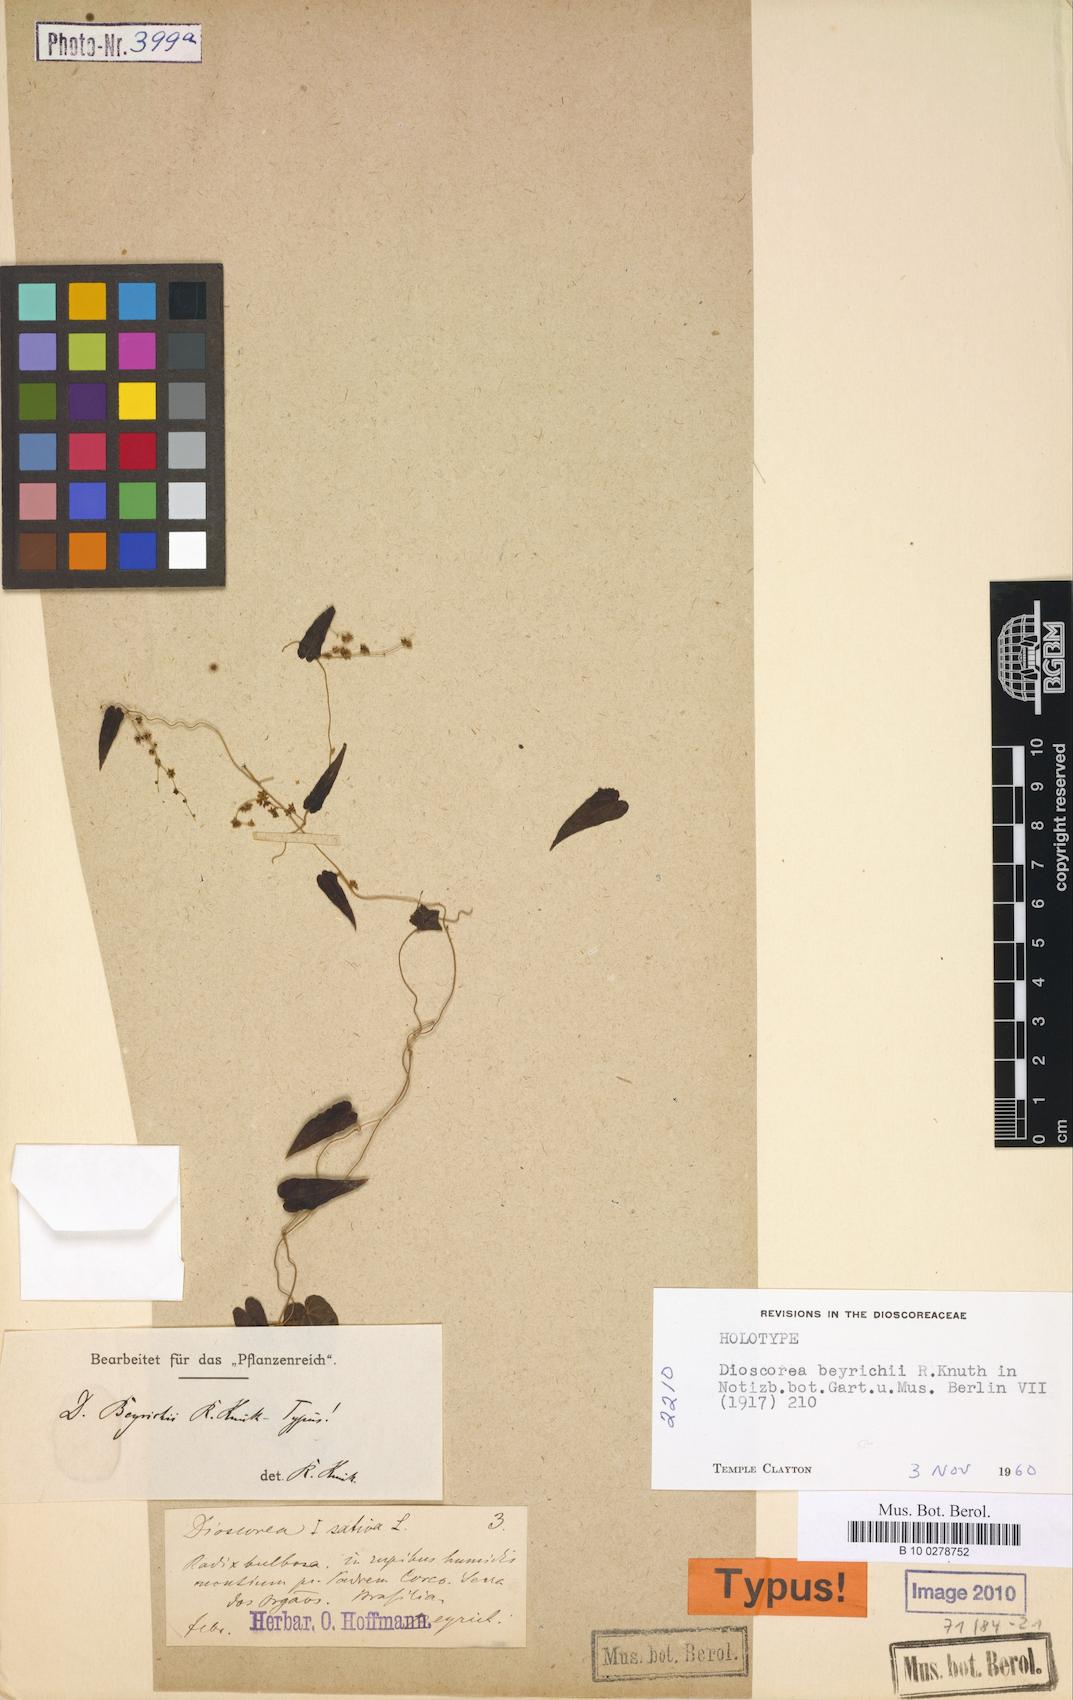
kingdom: Plantae
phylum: Tracheophyta
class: Liliopsida
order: Dioscoreales
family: Dioscoreaceae
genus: Dioscorea
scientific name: Dioscorea beyrichii
